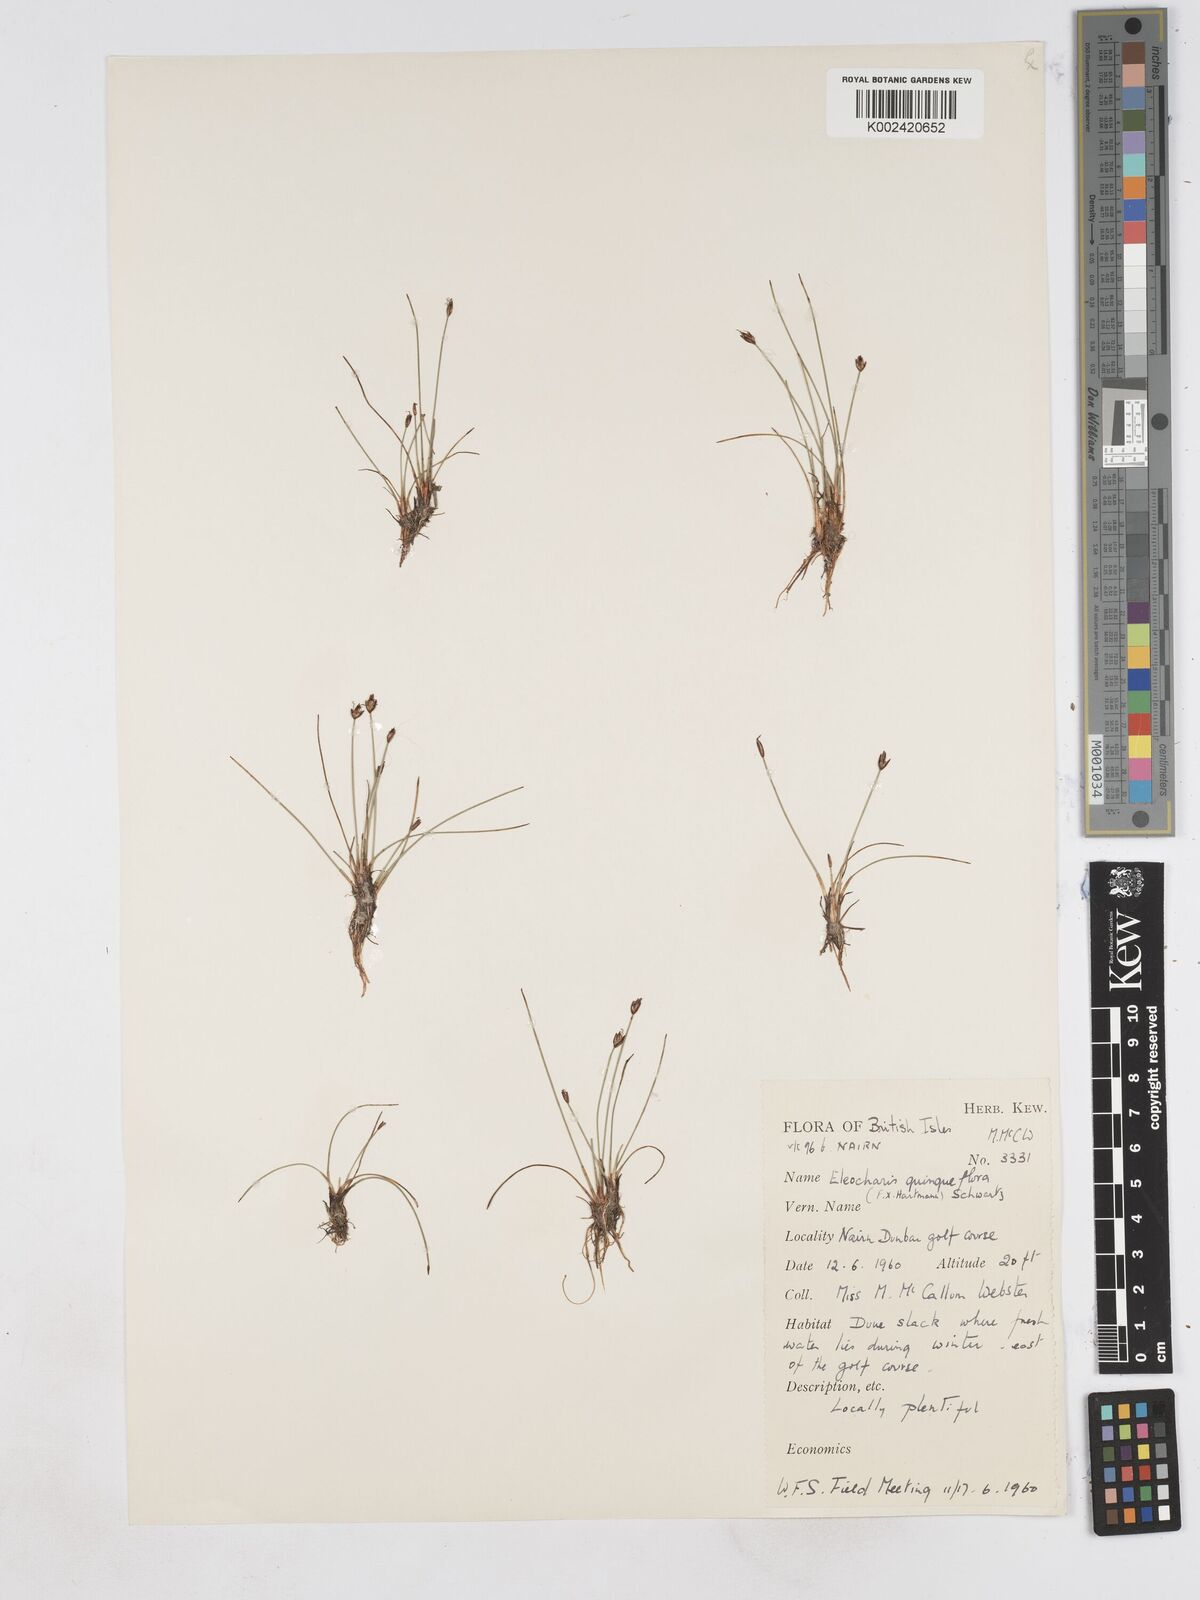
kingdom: Plantae
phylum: Tracheophyta
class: Liliopsida
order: Poales
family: Cyperaceae
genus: Eleocharis
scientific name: Eleocharis quinqueflora
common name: Few-flowered spike-rush
